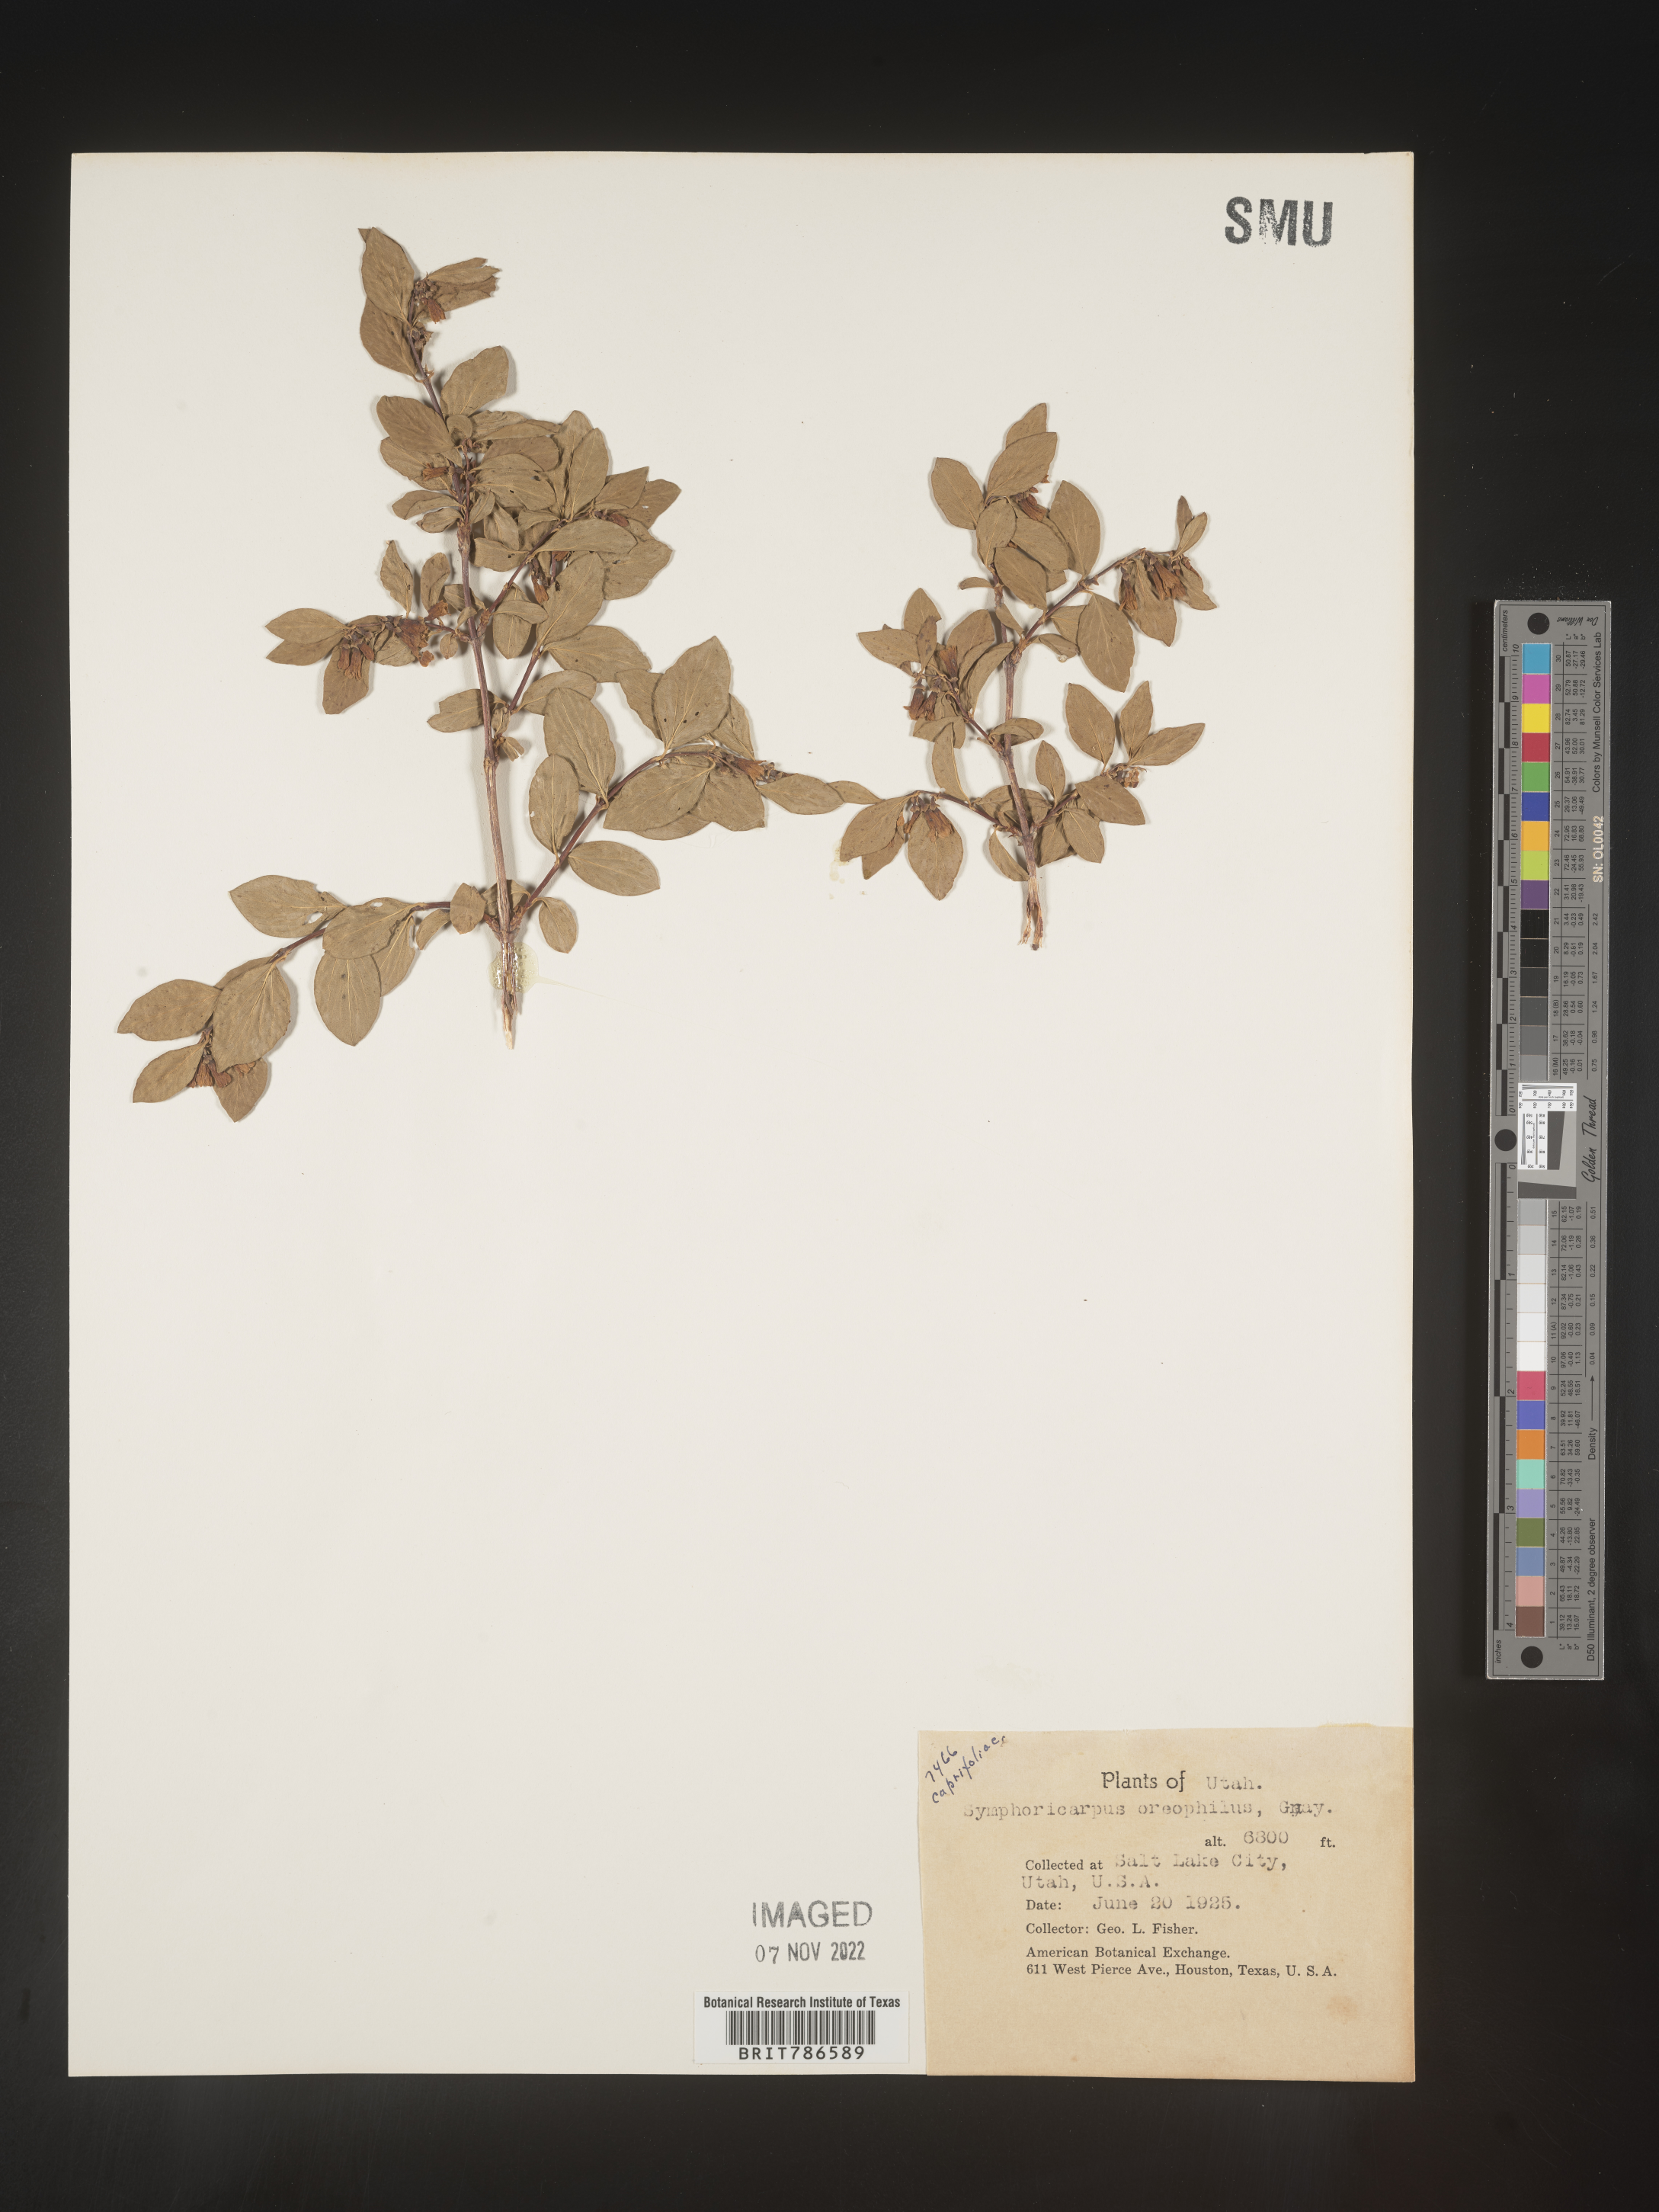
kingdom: Plantae
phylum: Tracheophyta
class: Magnoliopsida
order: Dipsacales
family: Caprifoliaceae
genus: Symphoricarpos
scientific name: Symphoricarpos oreophilus
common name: Mountain snowberry
